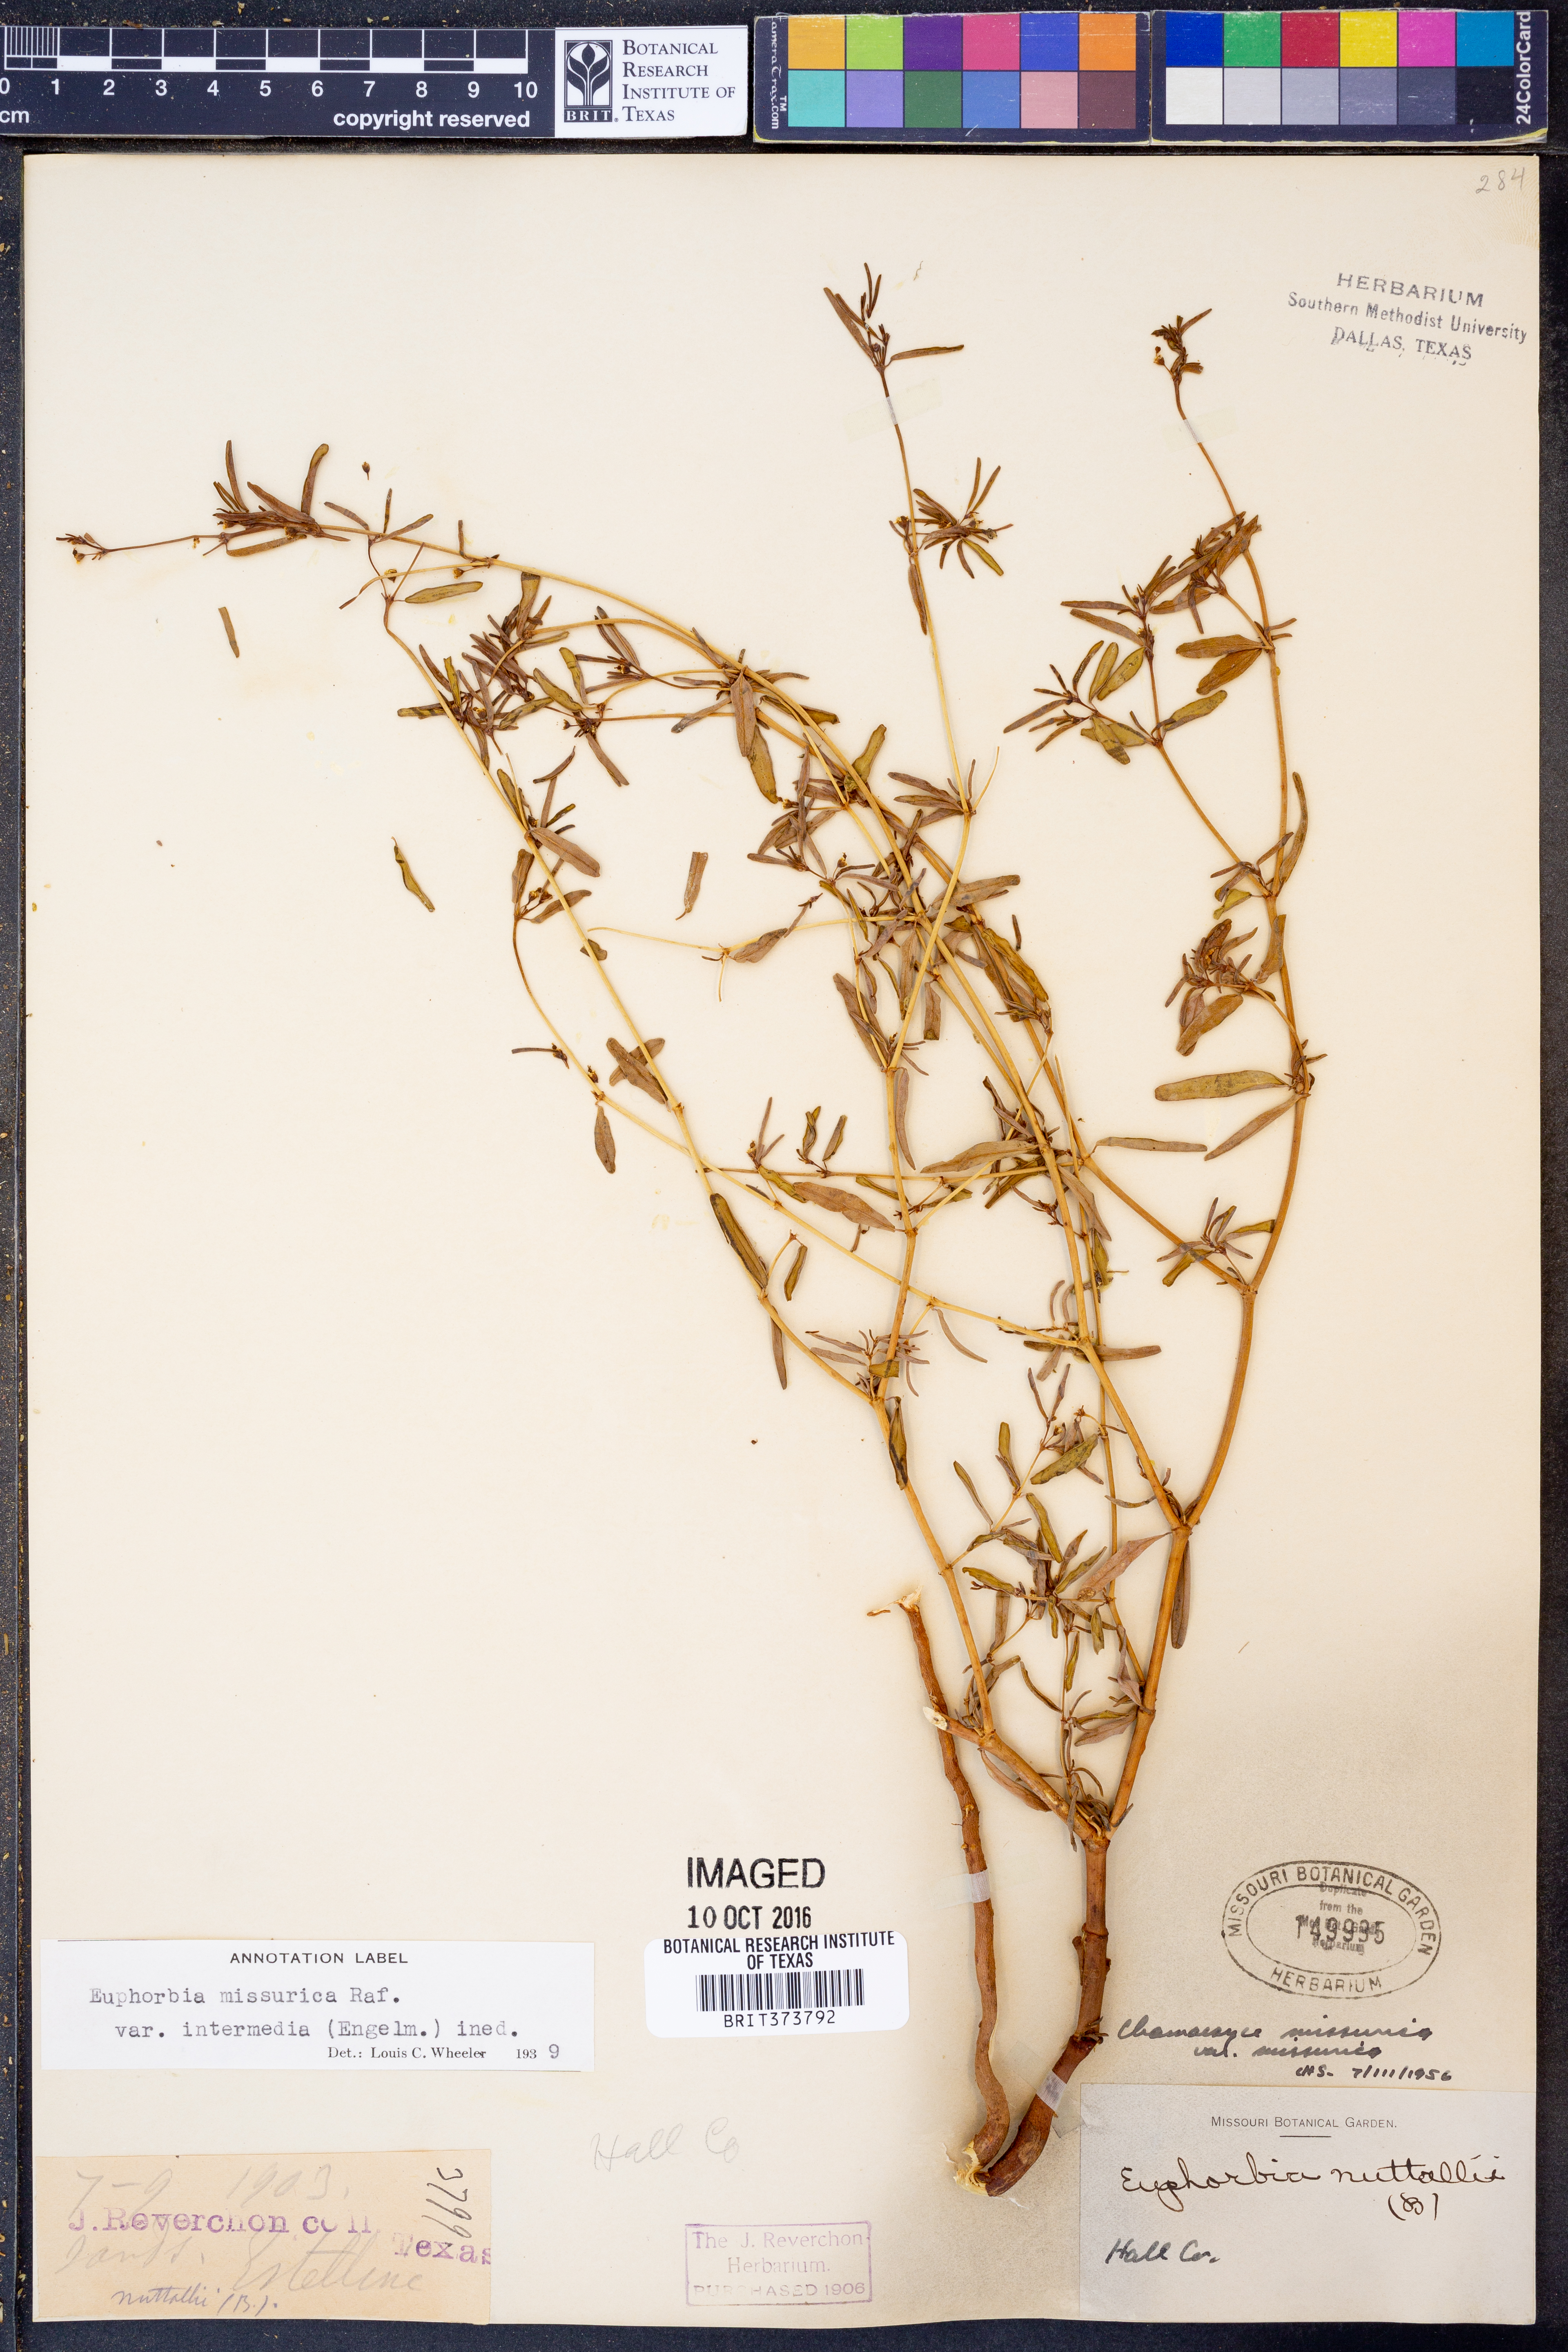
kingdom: Plantae
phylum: Tracheophyta
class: Magnoliopsida
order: Malpighiales
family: Euphorbiaceae
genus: Euphorbia
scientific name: Euphorbia missurica
